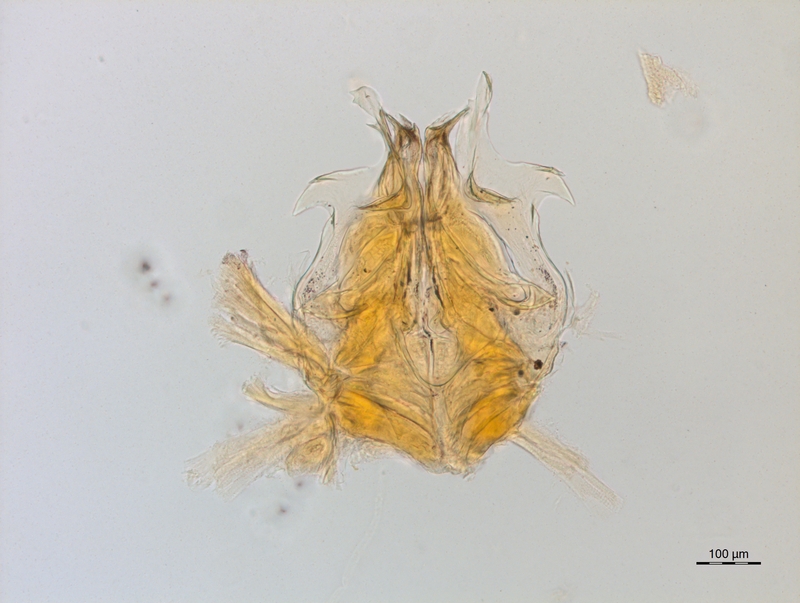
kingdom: Animalia
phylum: Arthropoda
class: Diplopoda
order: Chordeumatida
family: Craspedosomatidae
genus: Bomogona
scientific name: Bomogona lombardica
